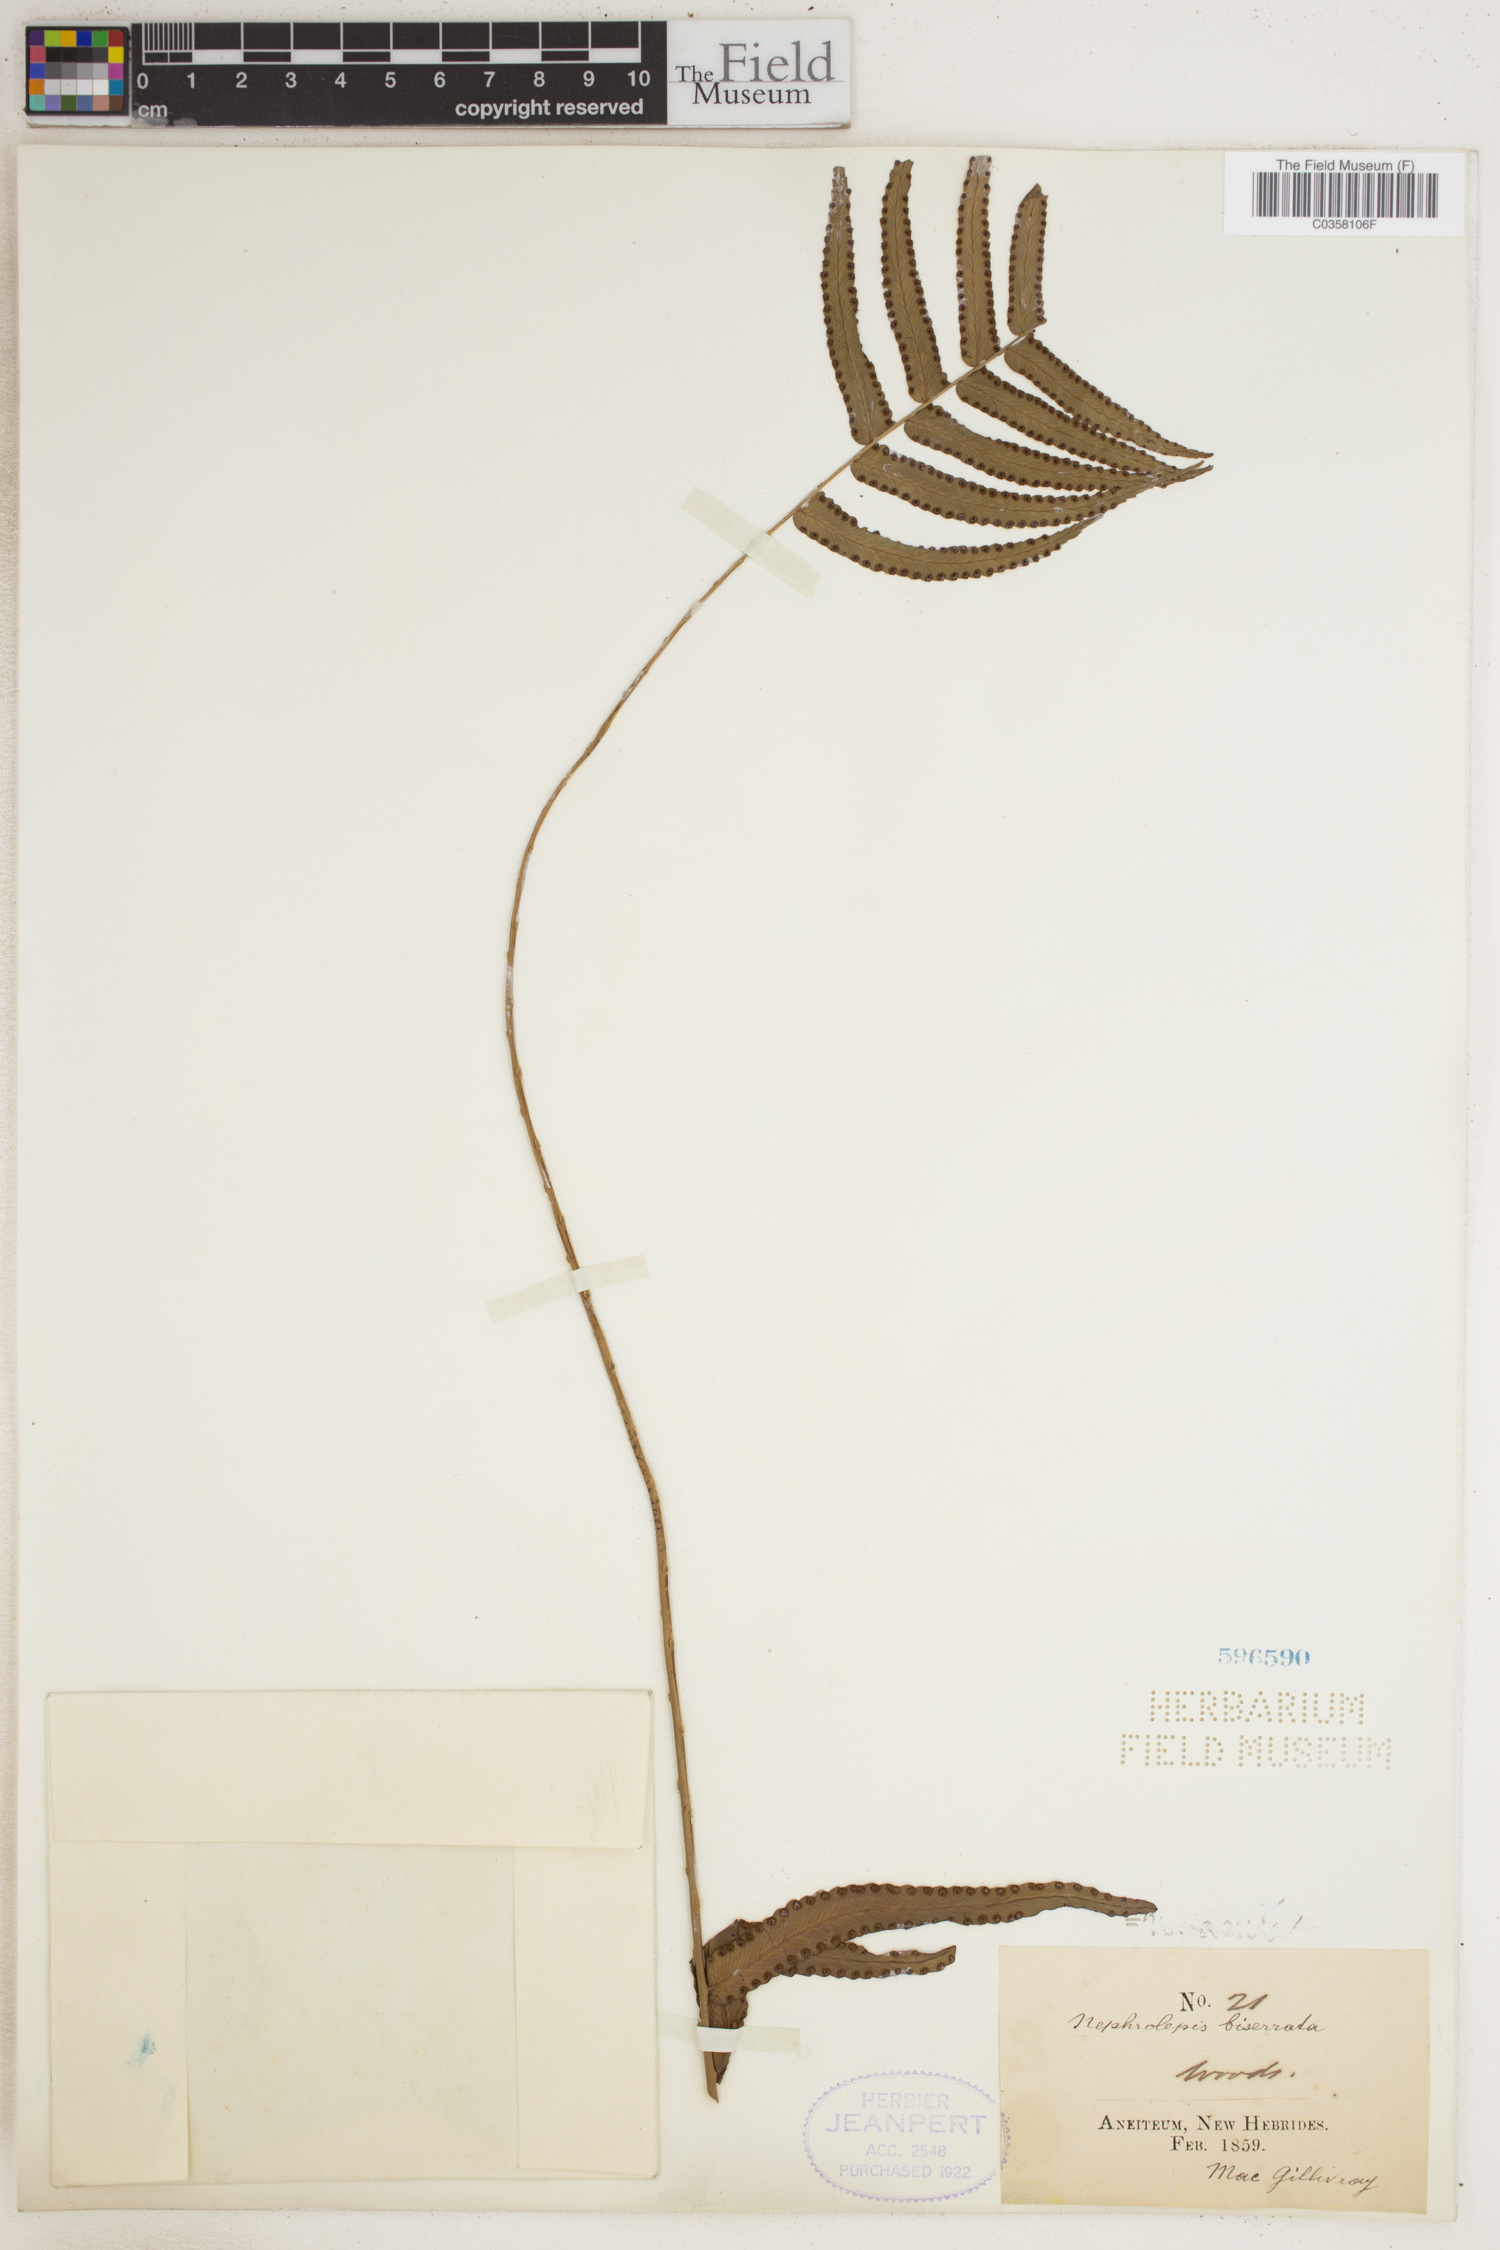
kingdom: Plantae
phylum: Tracheophyta
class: Polypodiopsida
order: Polypodiales
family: Nephrolepidaceae
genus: Nephrolepis
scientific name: Nephrolepis biserrata
